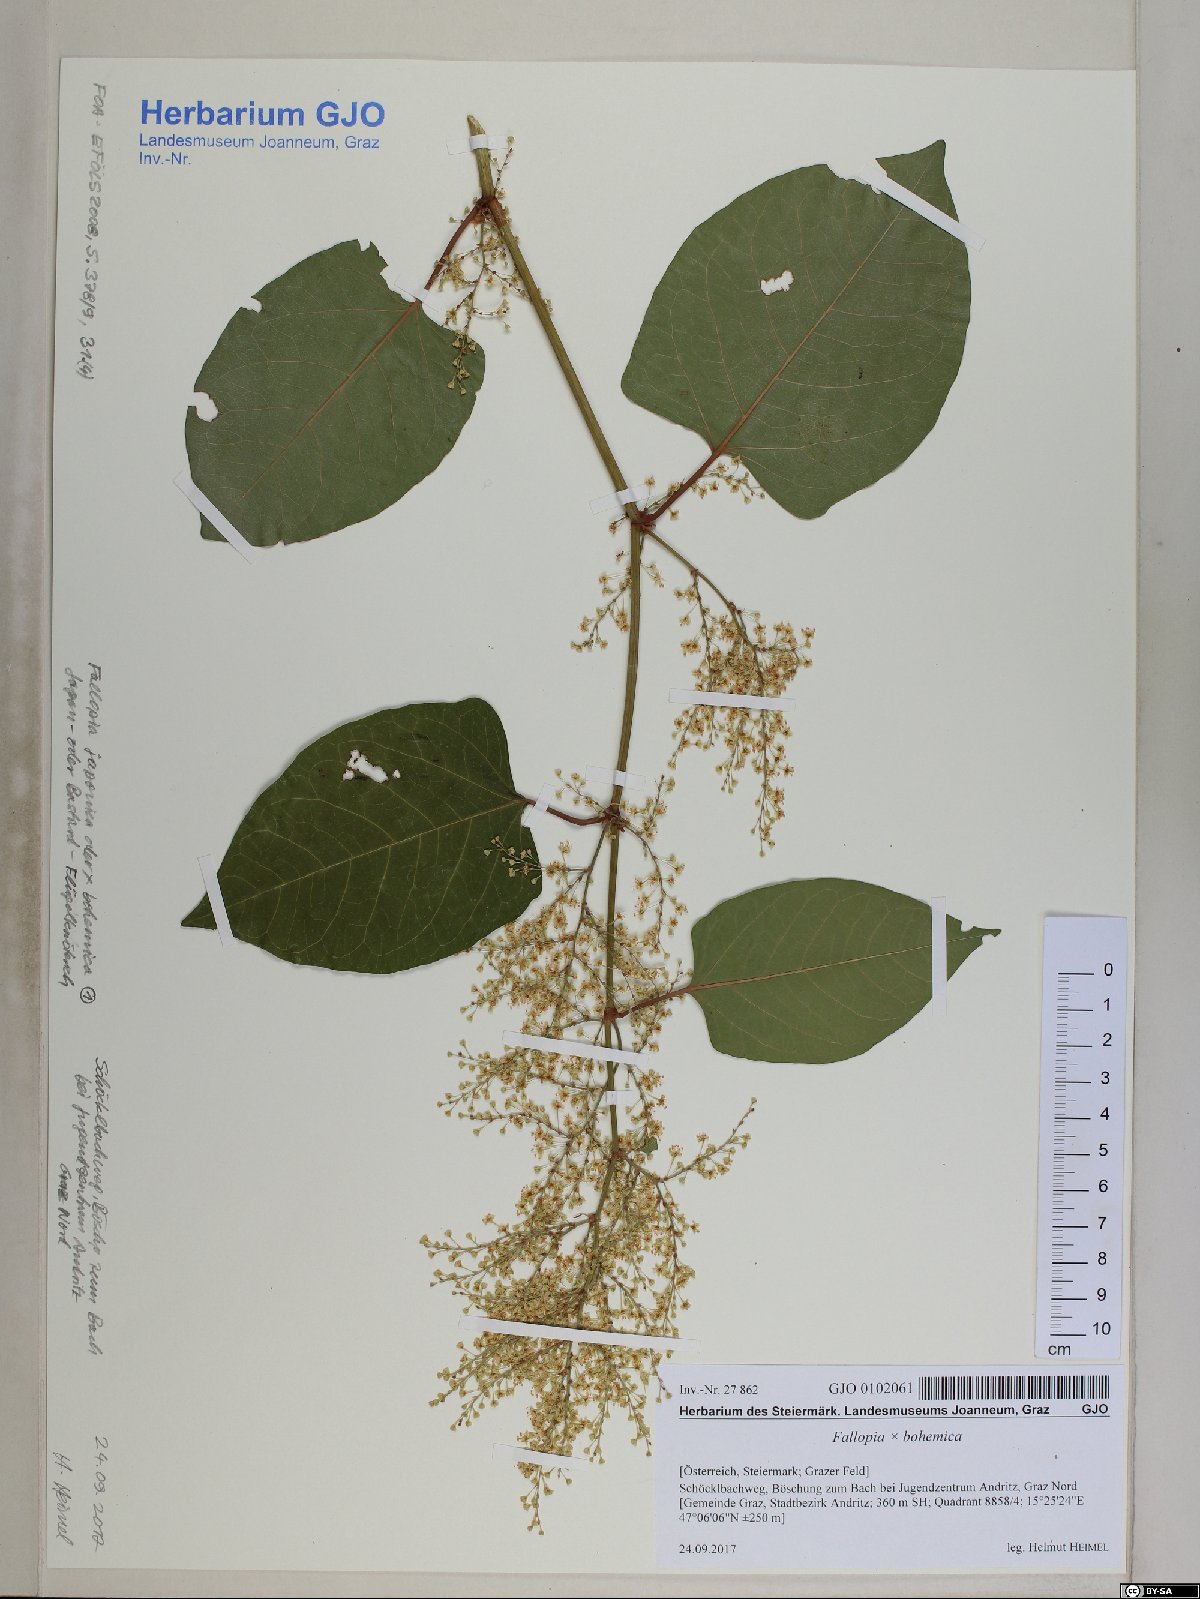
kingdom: Plantae
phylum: Tracheophyta
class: Magnoliopsida
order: Caryophyllales
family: Polygonaceae
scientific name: Polygonaceae
